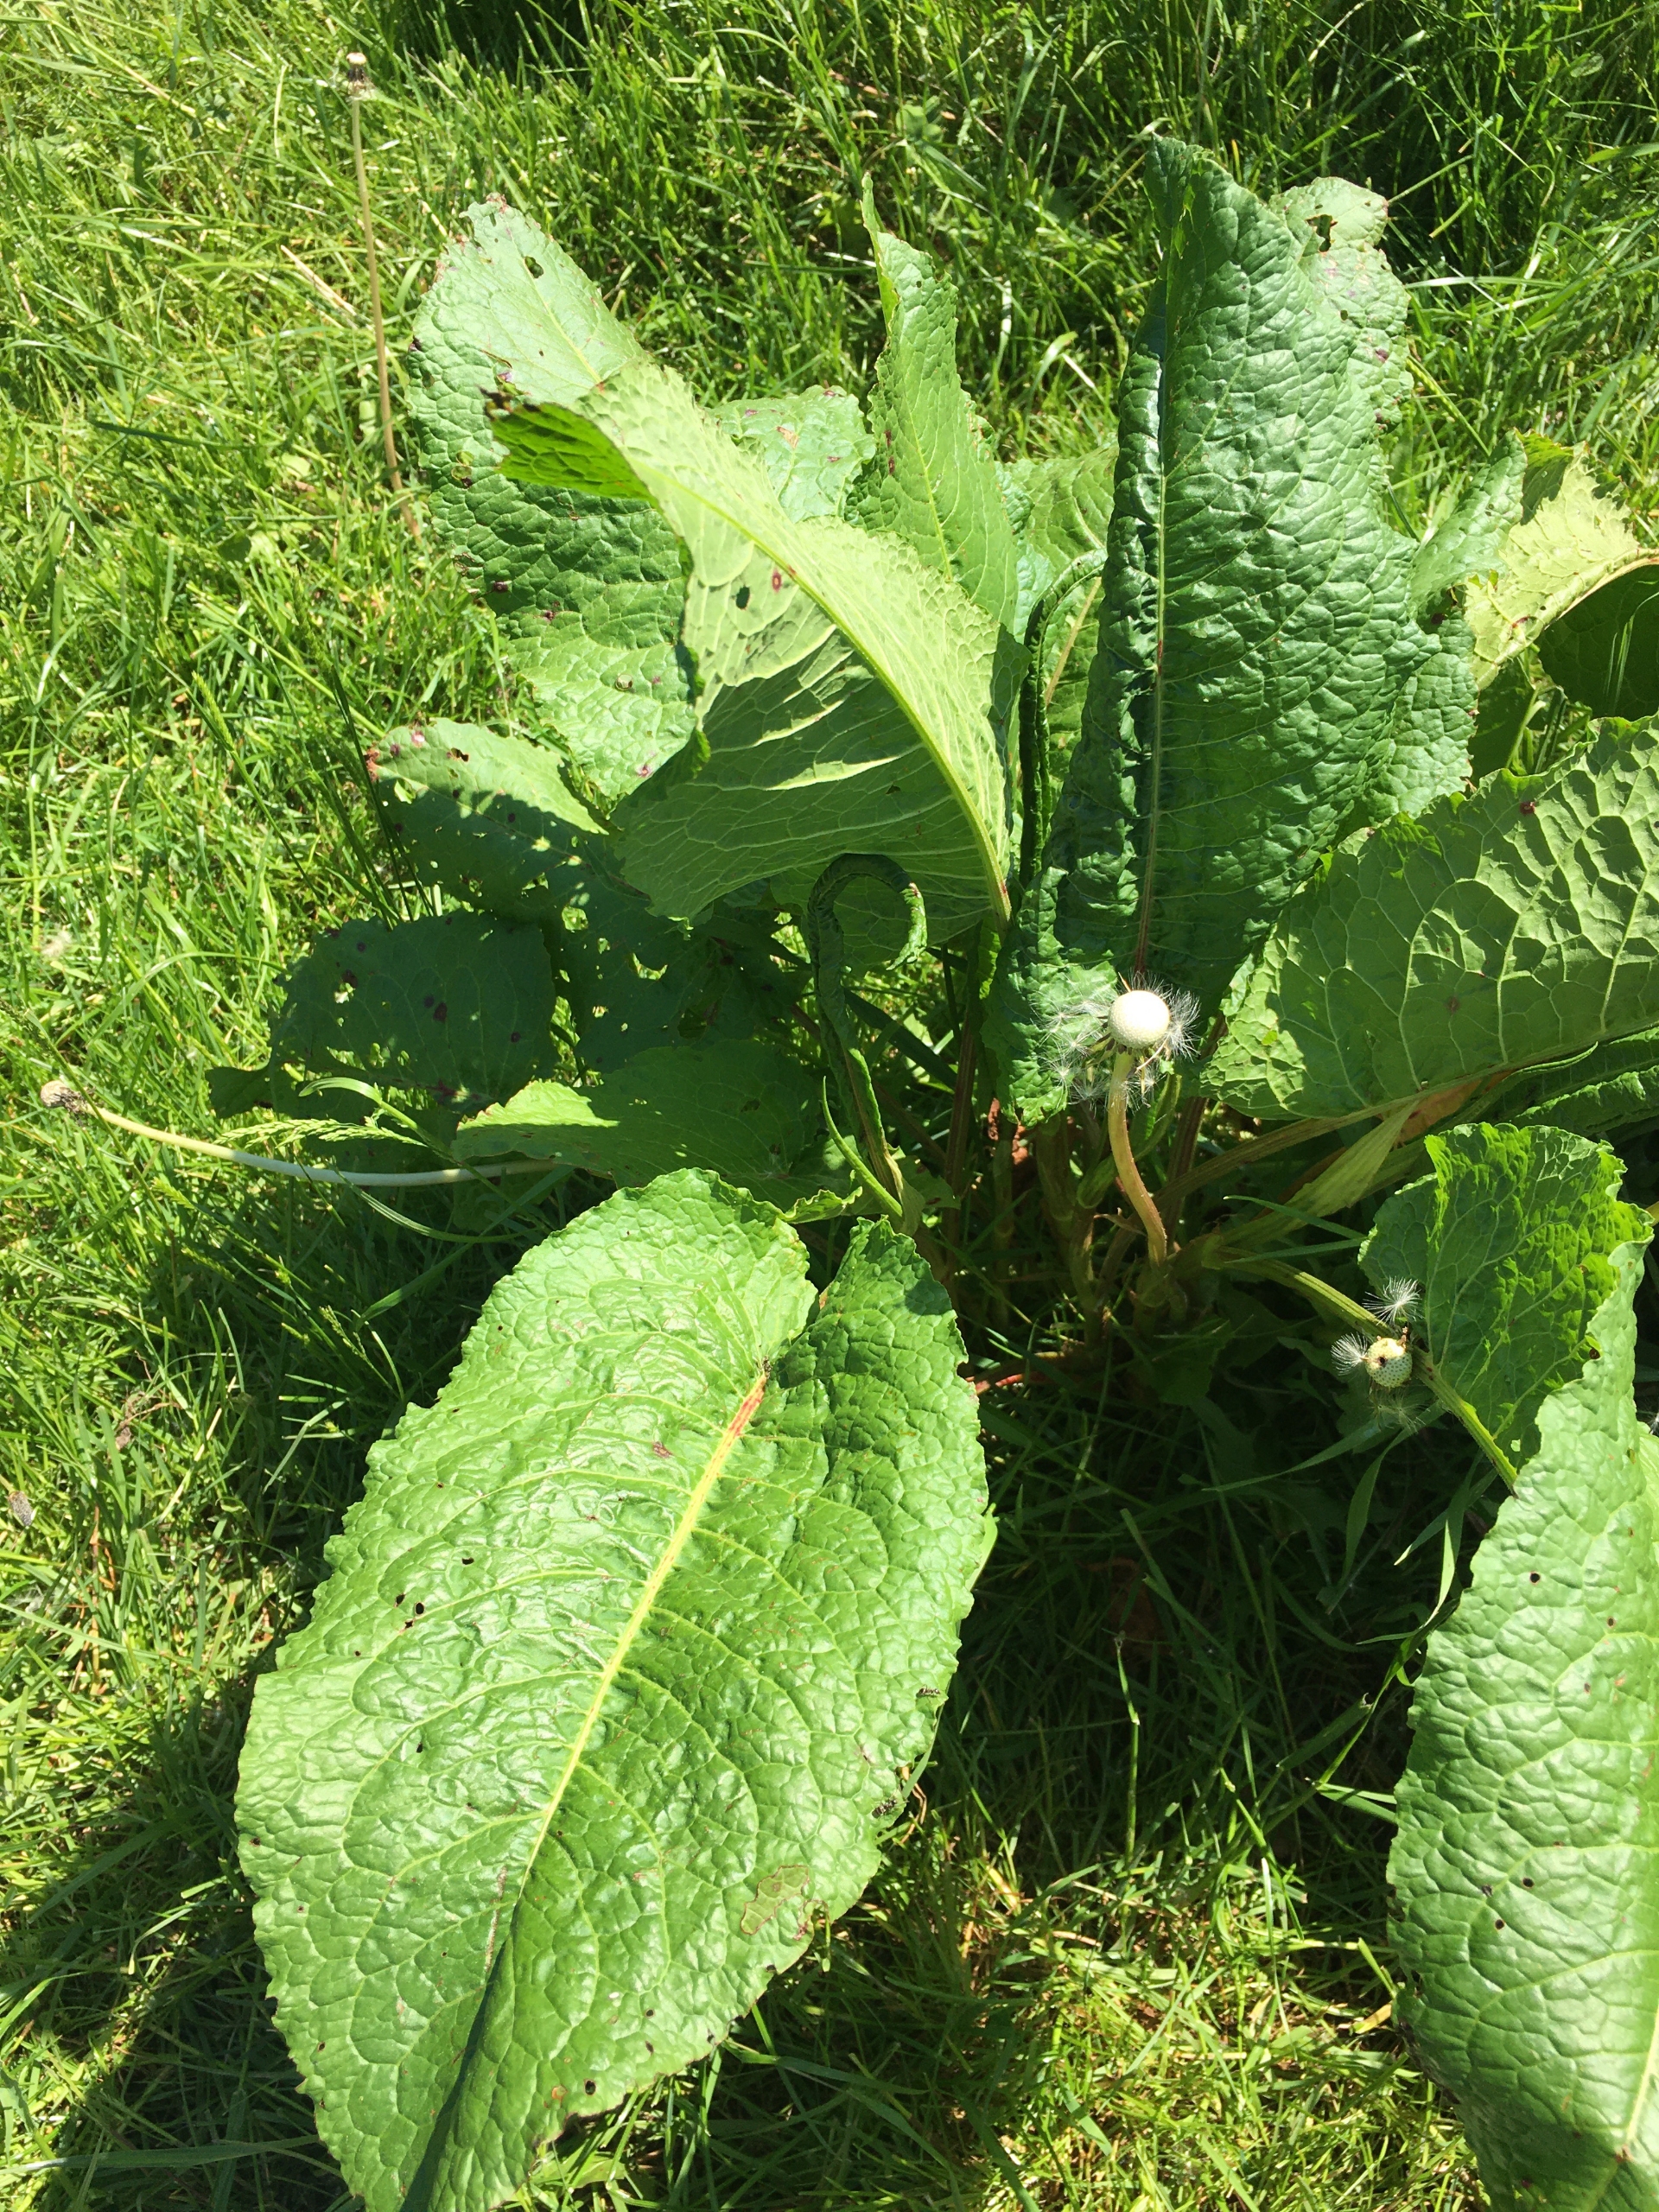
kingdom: Plantae
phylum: Tracheophyta
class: Magnoliopsida
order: Caryophyllales
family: Polygonaceae
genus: Rumex
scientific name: Rumex obtusifolius
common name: Butbladet skræppe
